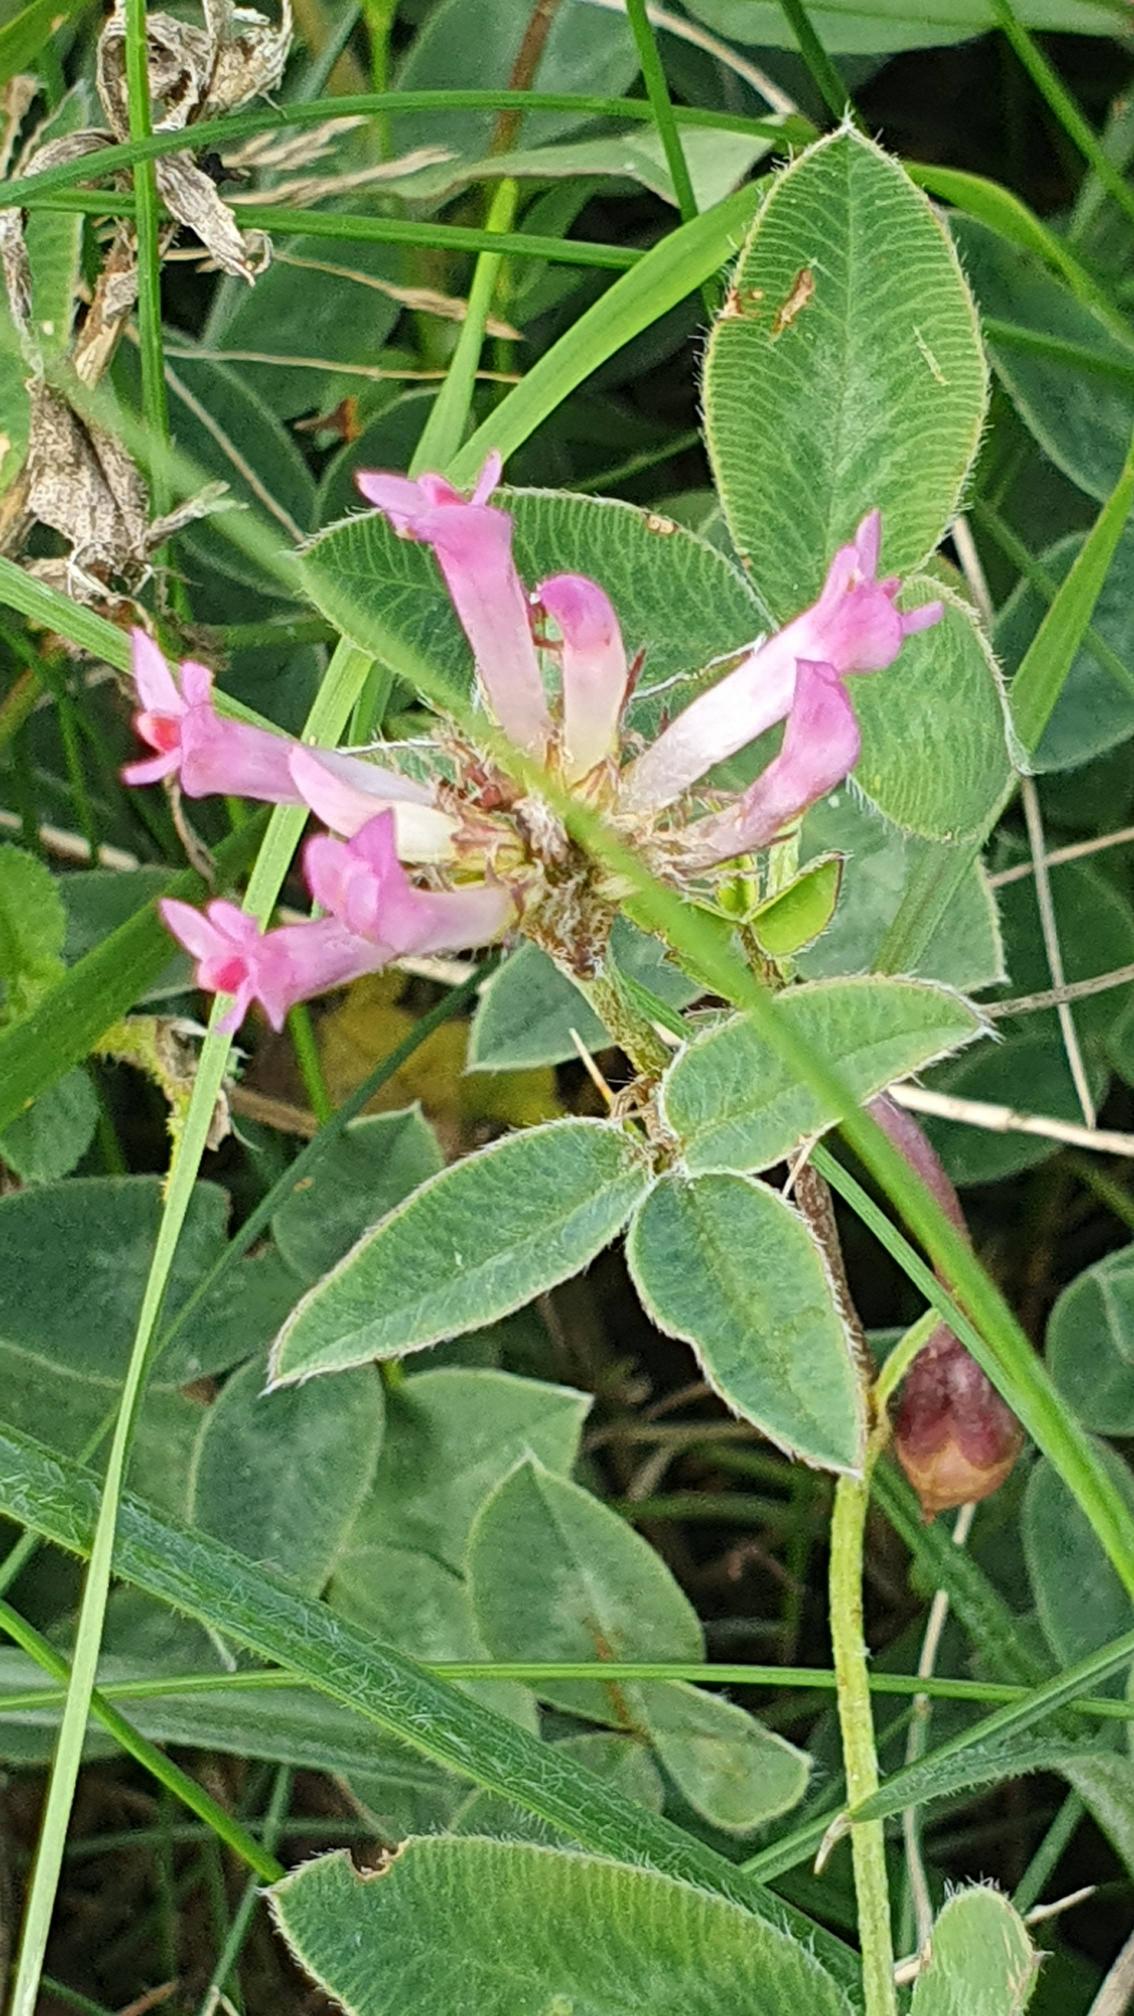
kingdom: Plantae
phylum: Tracheophyta
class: Magnoliopsida
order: Fabales
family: Fabaceae
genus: Trifolium
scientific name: Trifolium medium
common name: Bugtet kløver
